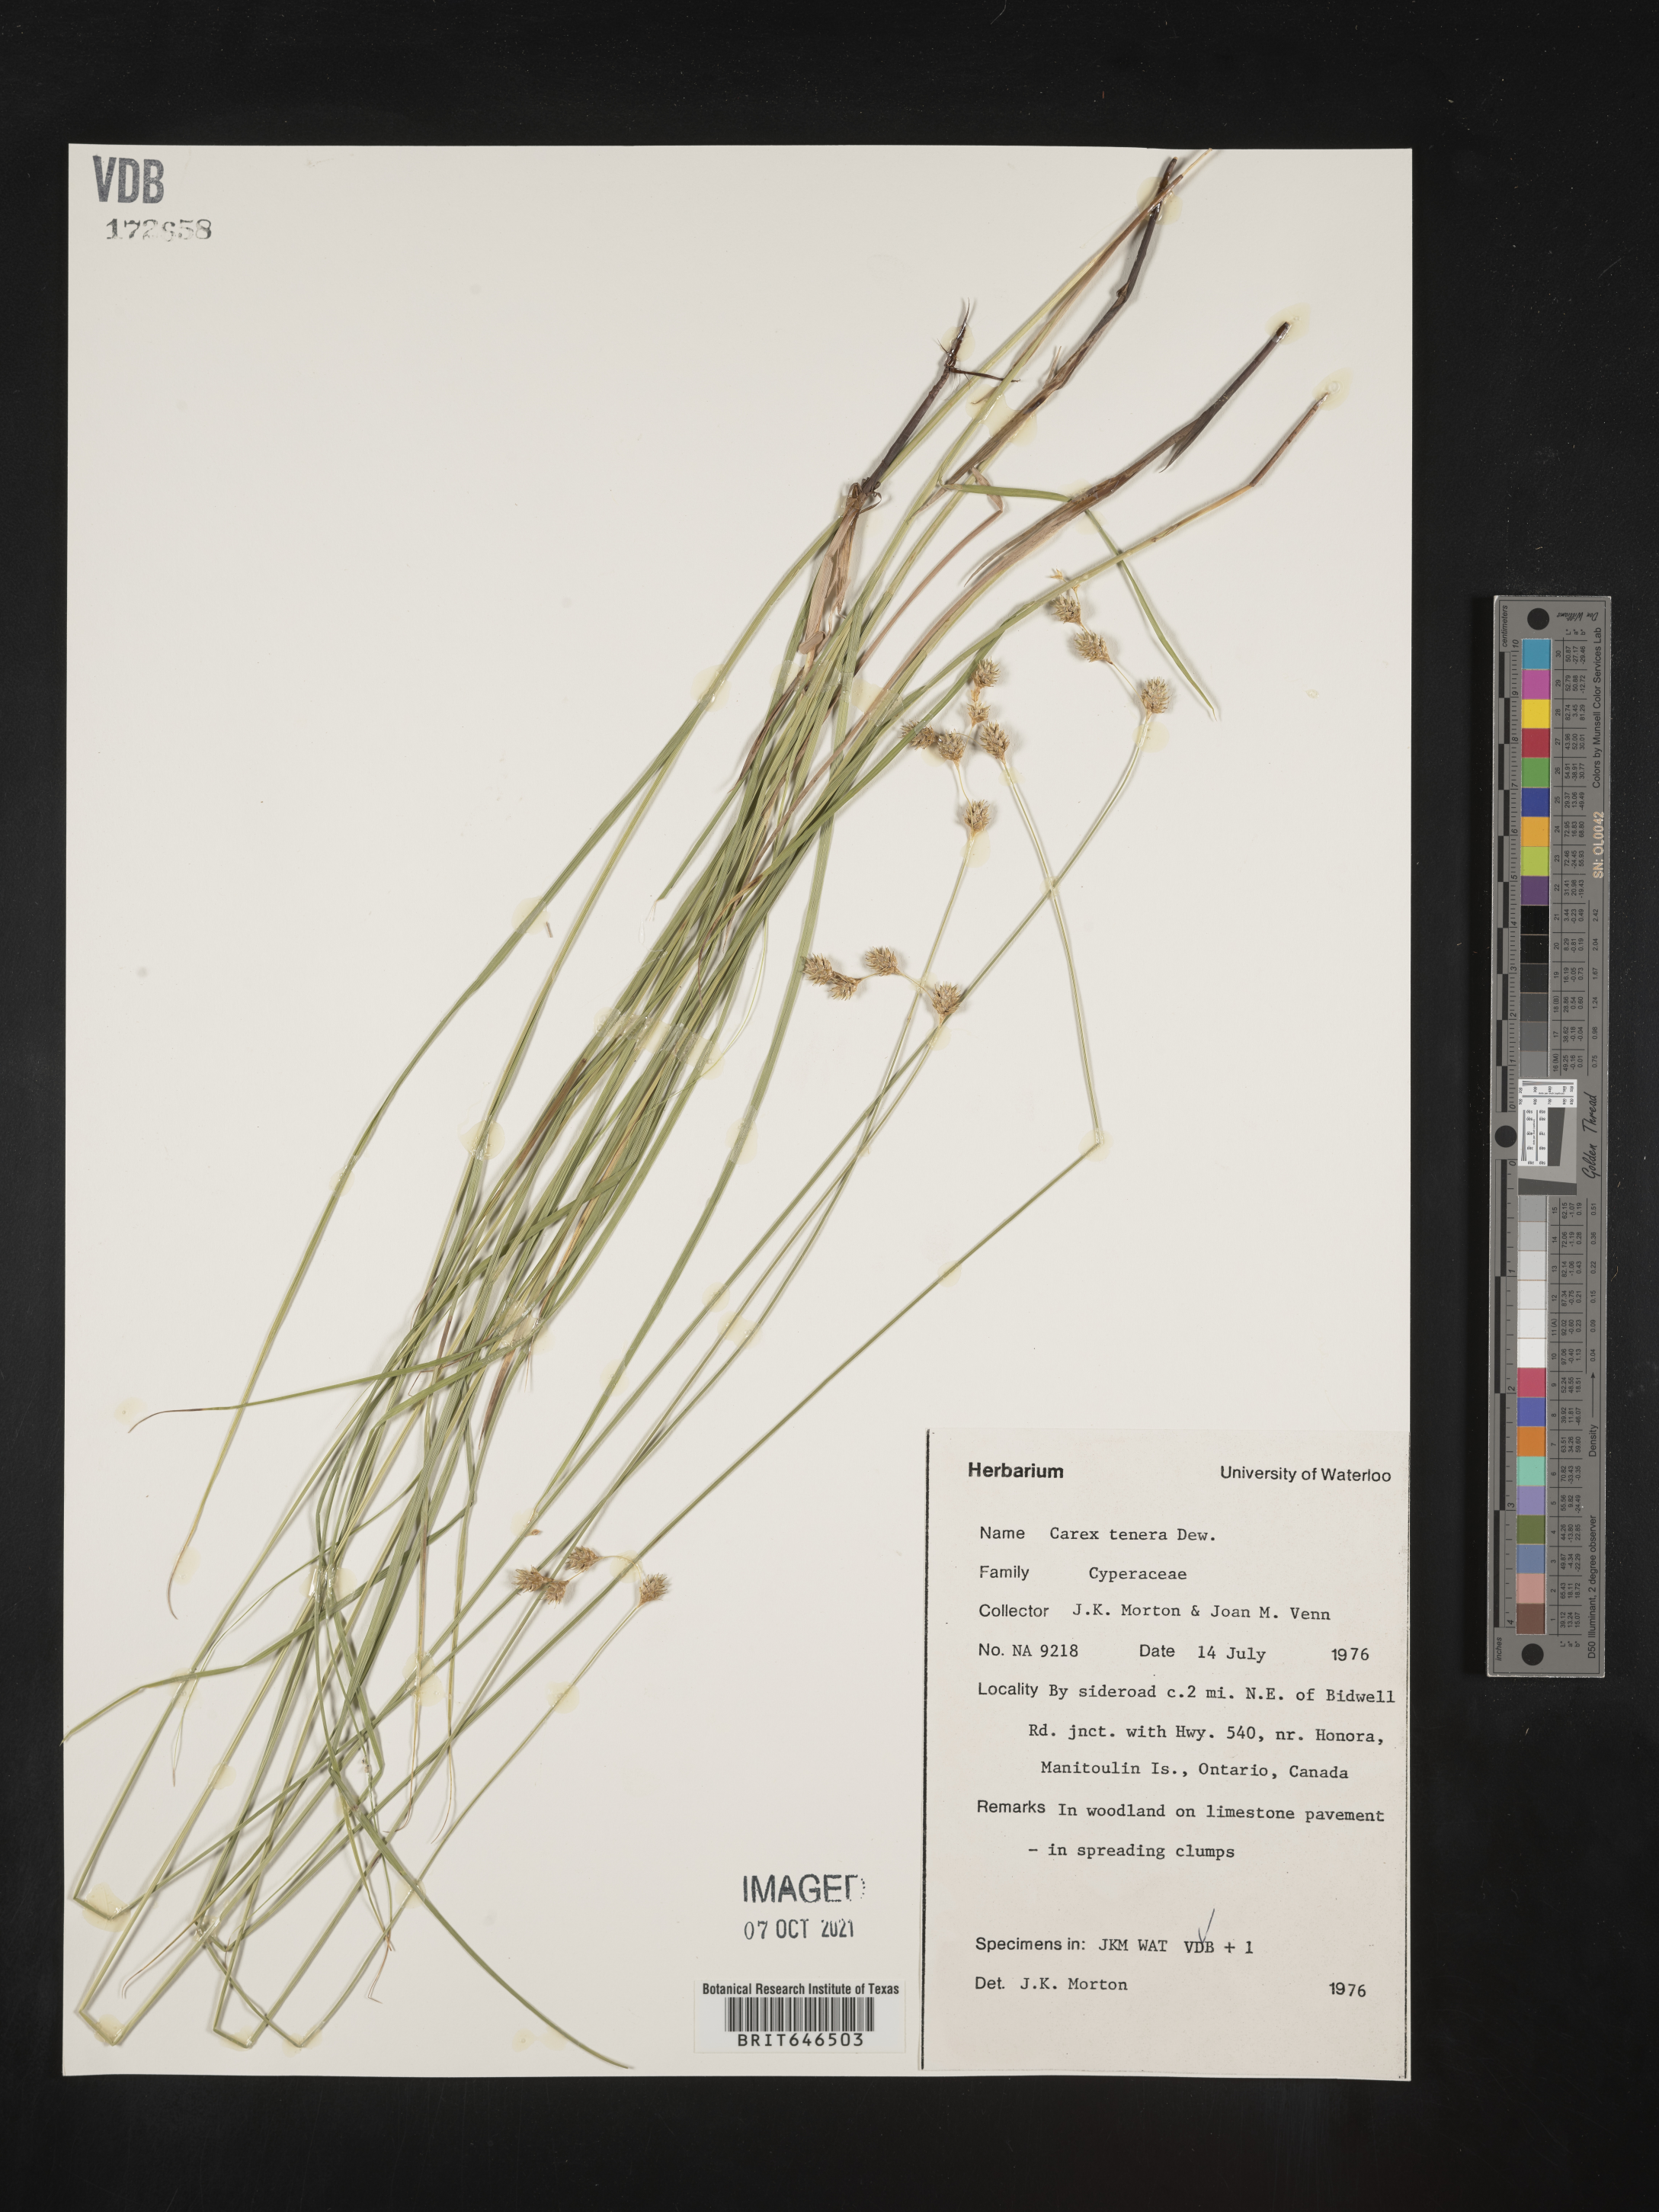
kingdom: Plantae
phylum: Tracheophyta
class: Liliopsida
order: Poales
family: Cyperaceae
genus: Carex
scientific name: Carex tenera
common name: Broad-fruited sedge
